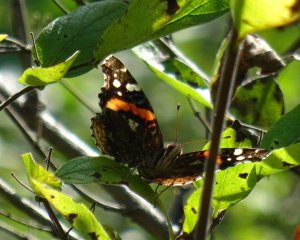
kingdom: Animalia
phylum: Arthropoda
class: Insecta
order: Lepidoptera
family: Nymphalidae
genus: Vanessa
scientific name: Vanessa atalanta
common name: Red Admiral
